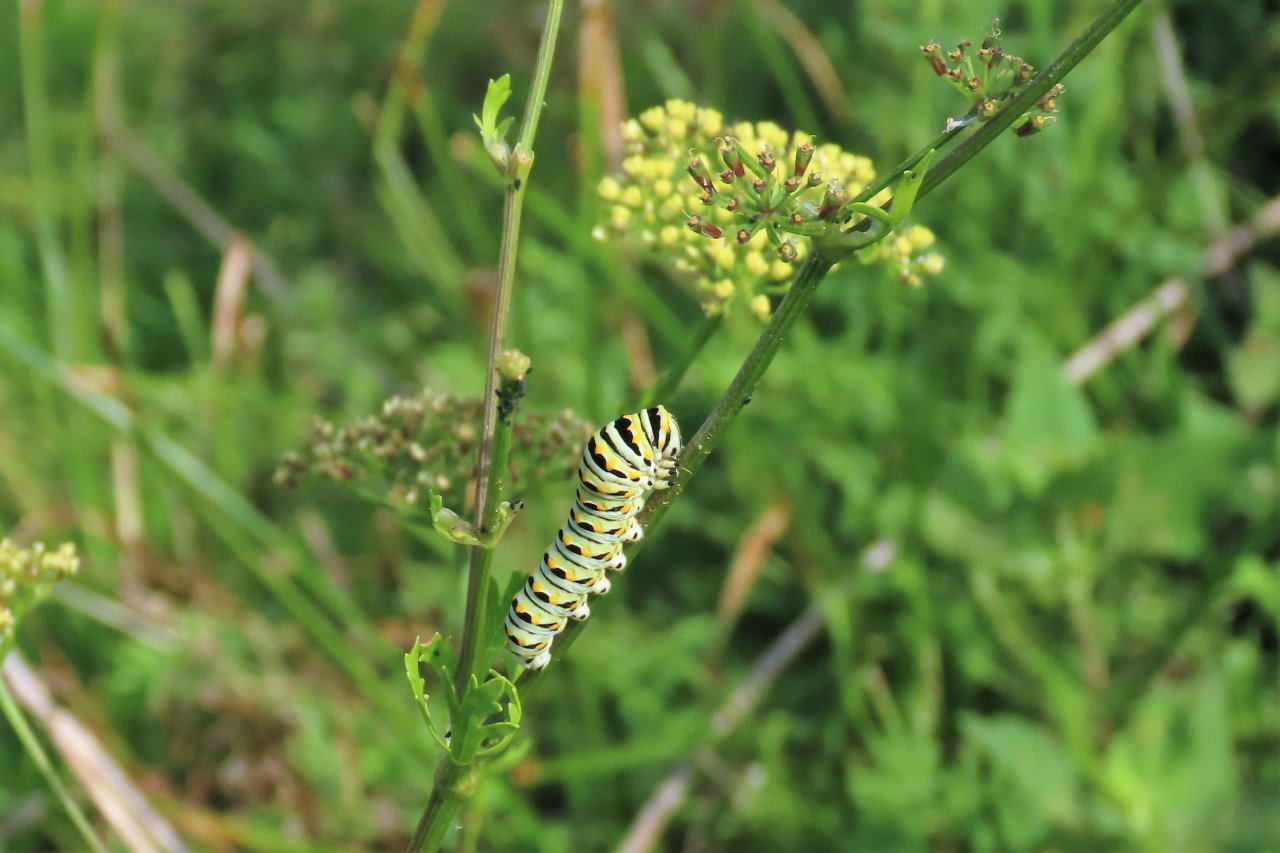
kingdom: Animalia
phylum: Arthropoda
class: Insecta
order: Lepidoptera
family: Papilionidae
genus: Papilio
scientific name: Papilio polyxenes
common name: Black Swallowtail
